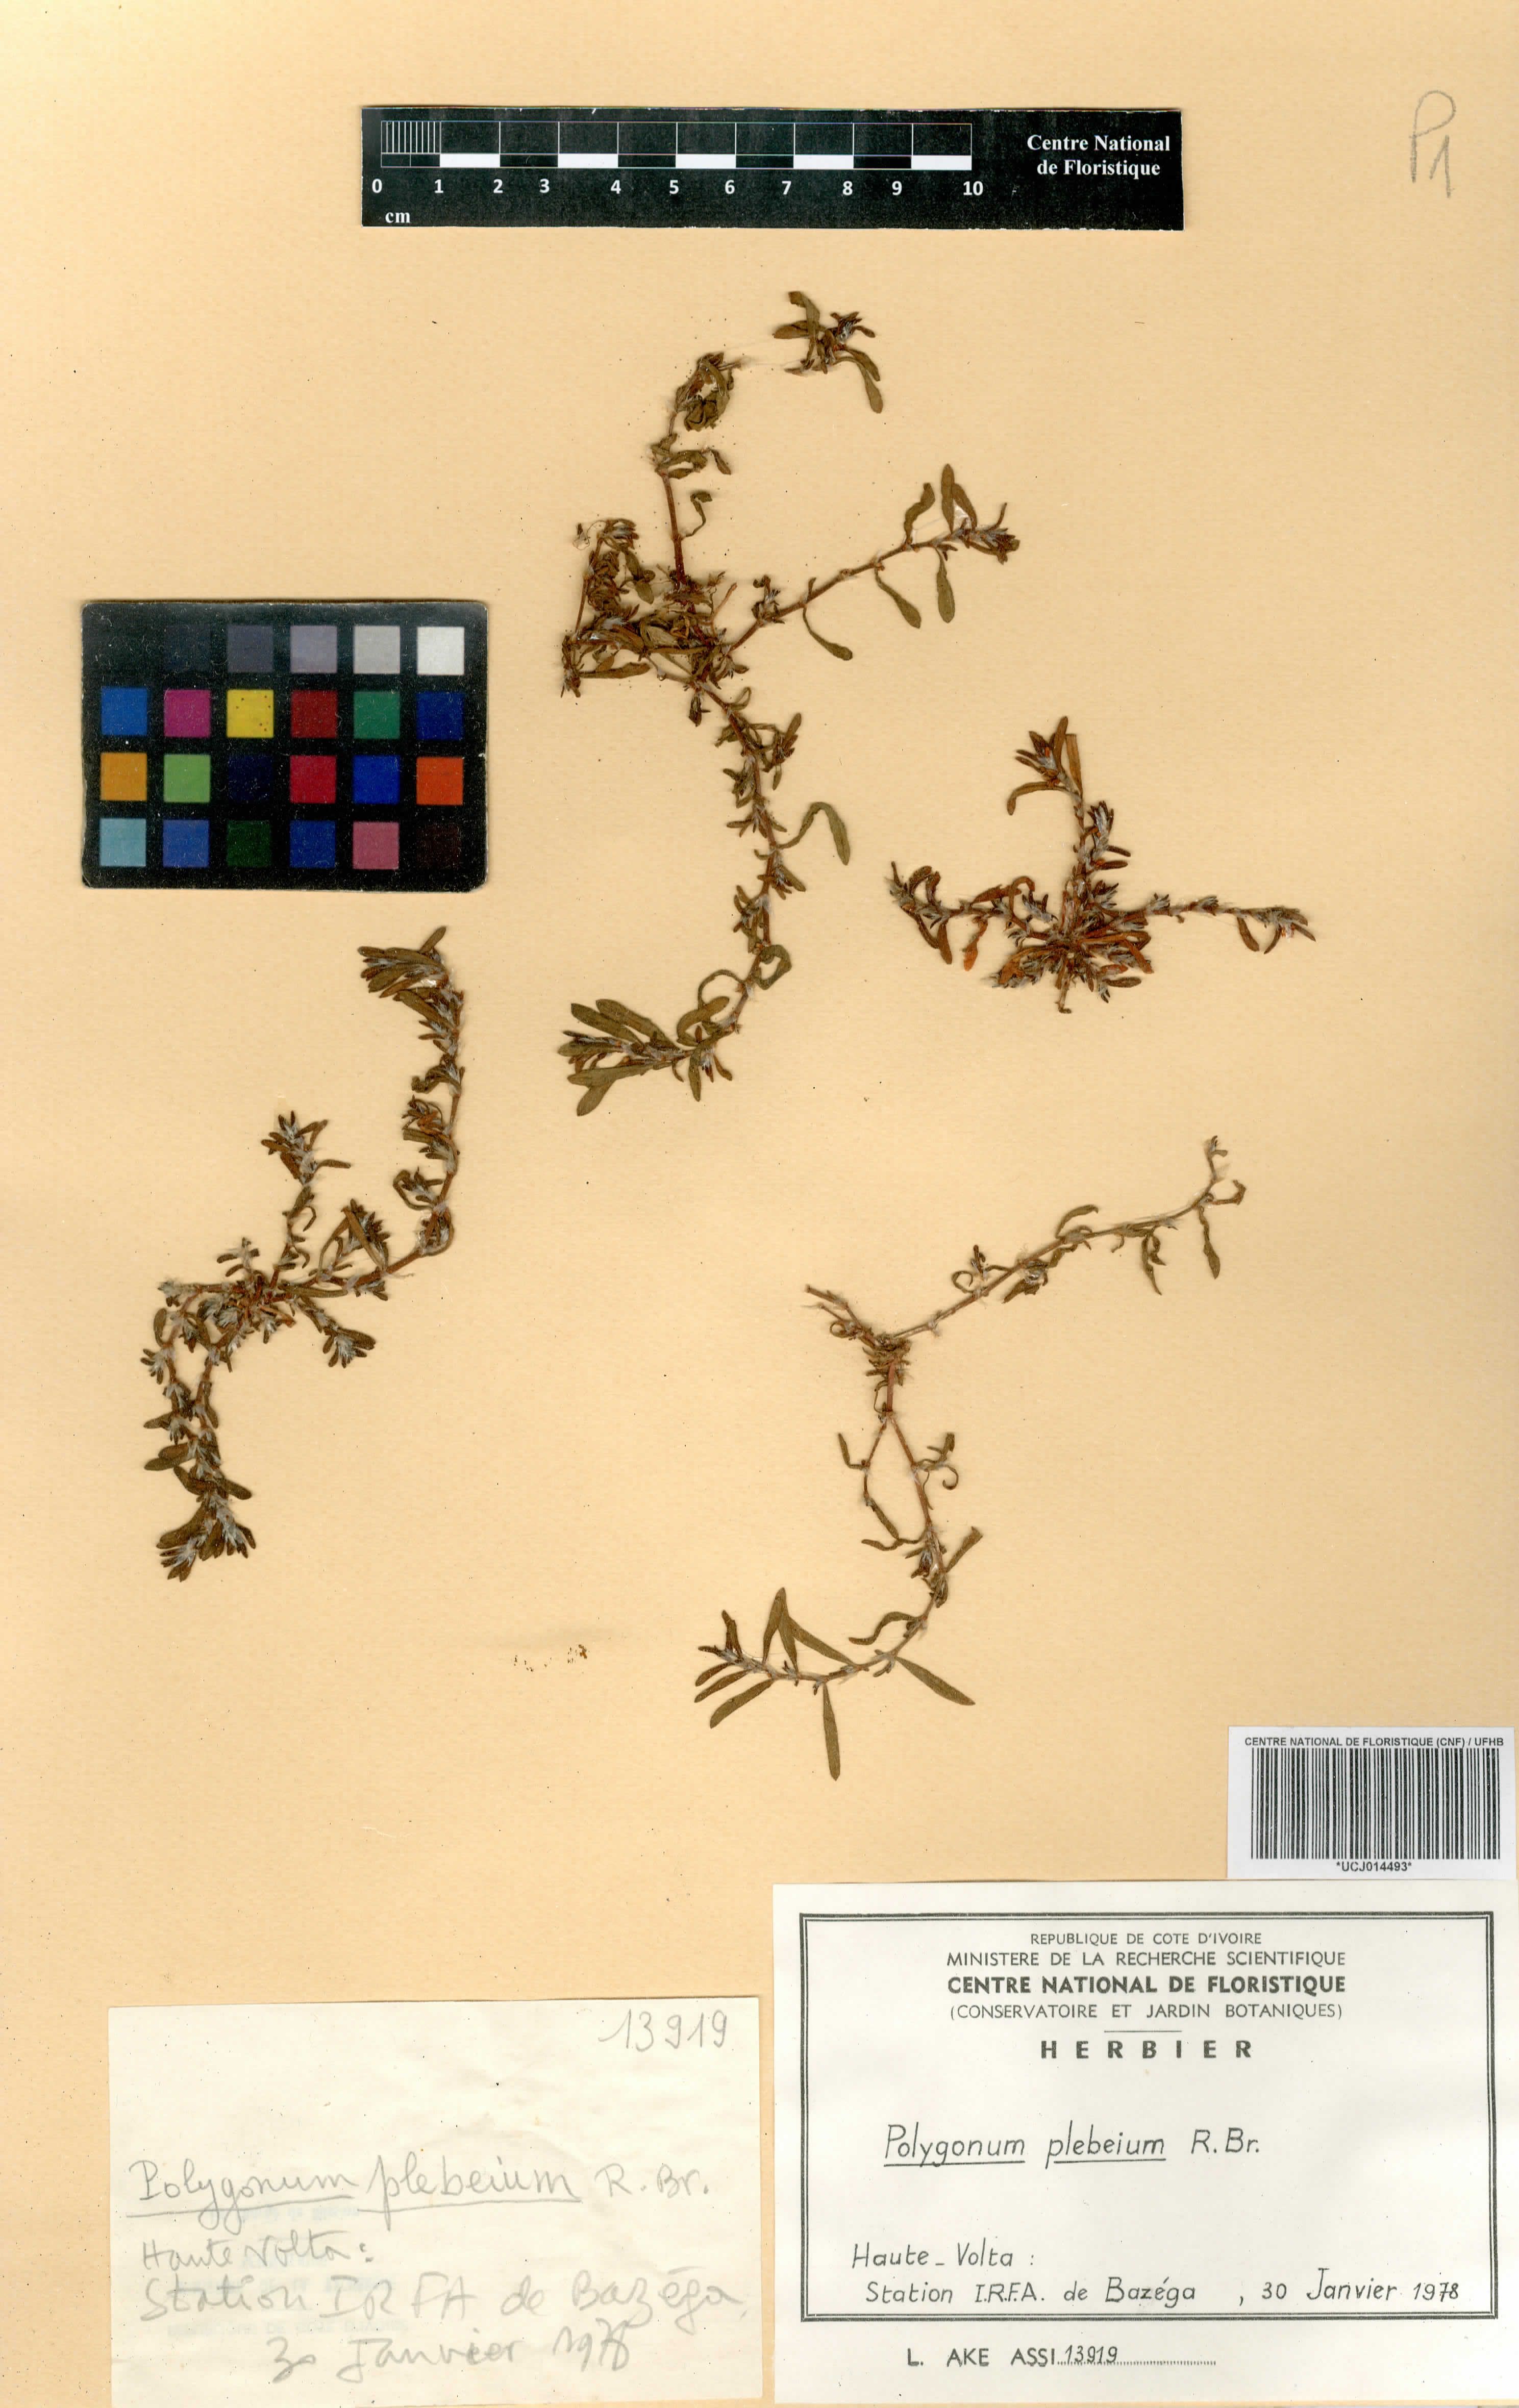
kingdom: Plantae
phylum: Tracheophyta
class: Magnoliopsida
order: Caryophyllales
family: Polygonaceae
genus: Polygonum
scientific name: Polygonum plebeium
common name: Common knotweed
